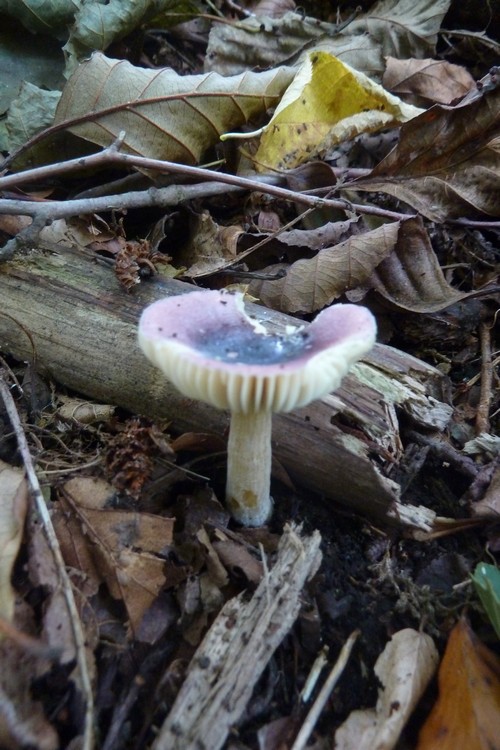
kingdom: Fungi
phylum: Basidiomycota
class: Agaricomycetes
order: Russulales
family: Russulaceae
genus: Russula
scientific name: Russula alnetorum
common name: elle-skørhat
